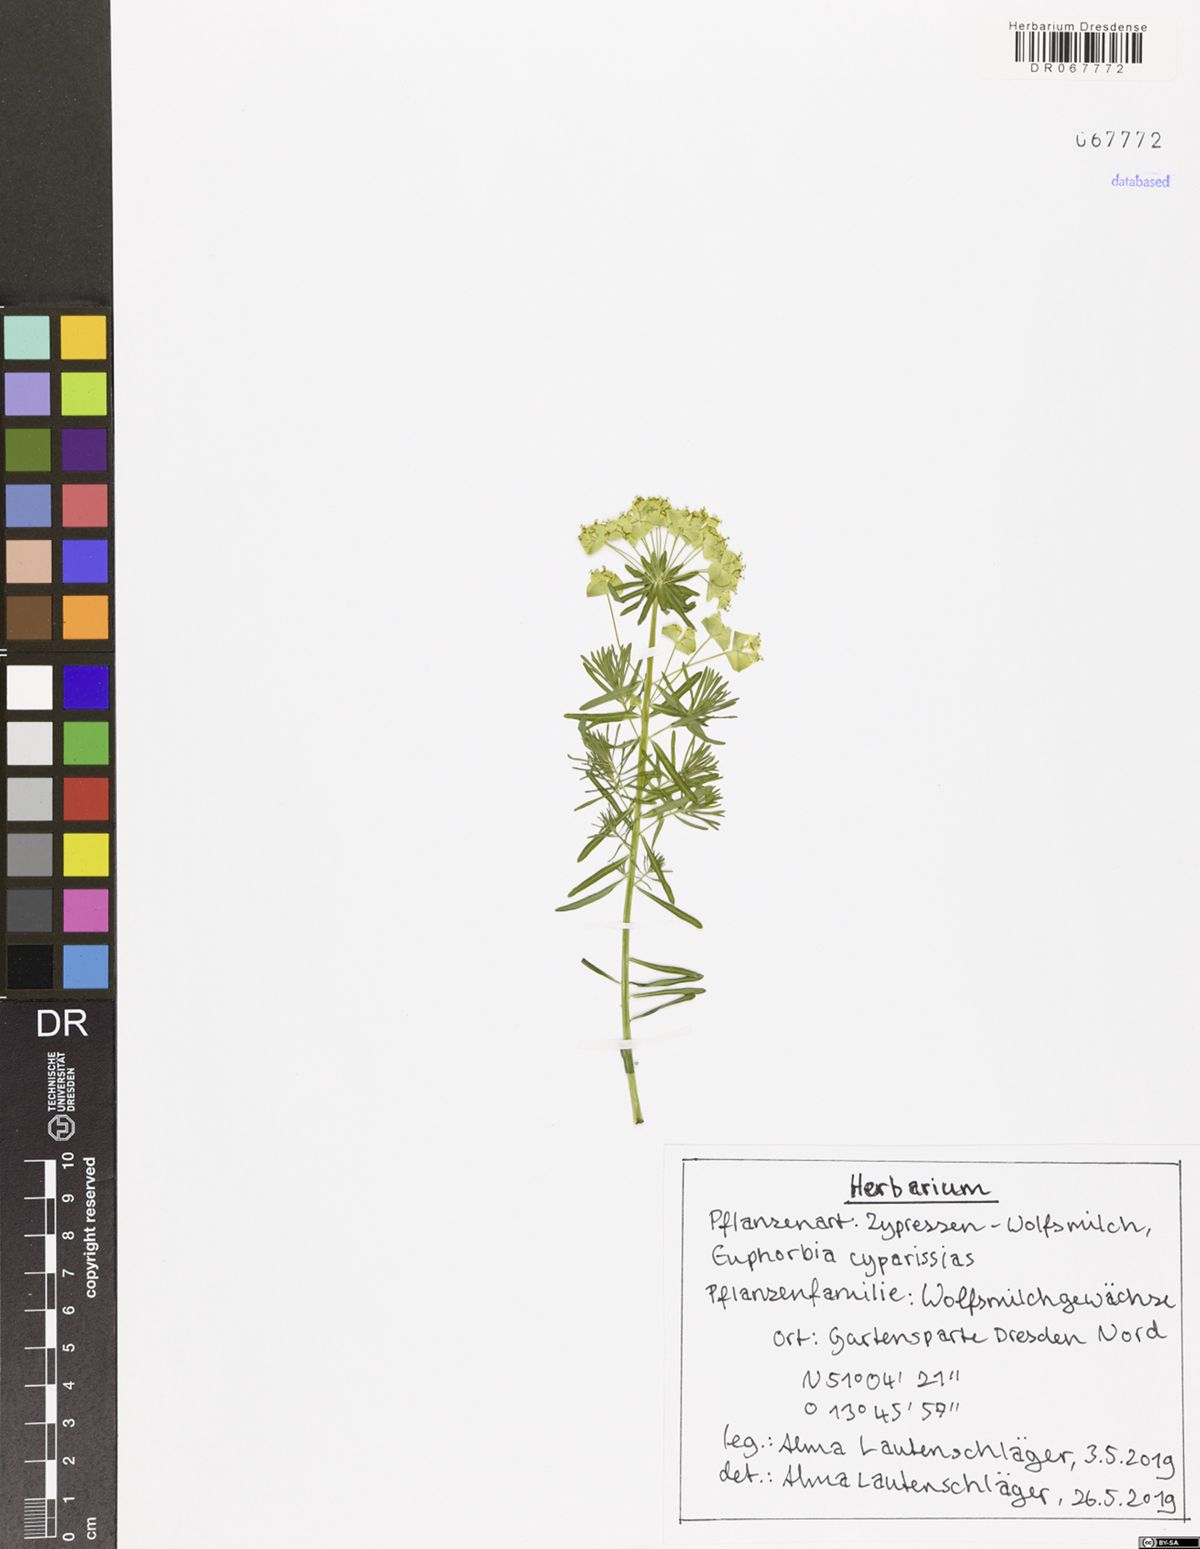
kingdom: Plantae
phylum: Tracheophyta
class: Magnoliopsida
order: Malpighiales
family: Euphorbiaceae
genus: Euphorbia
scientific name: Euphorbia cyparissias
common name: Cypress spurge
